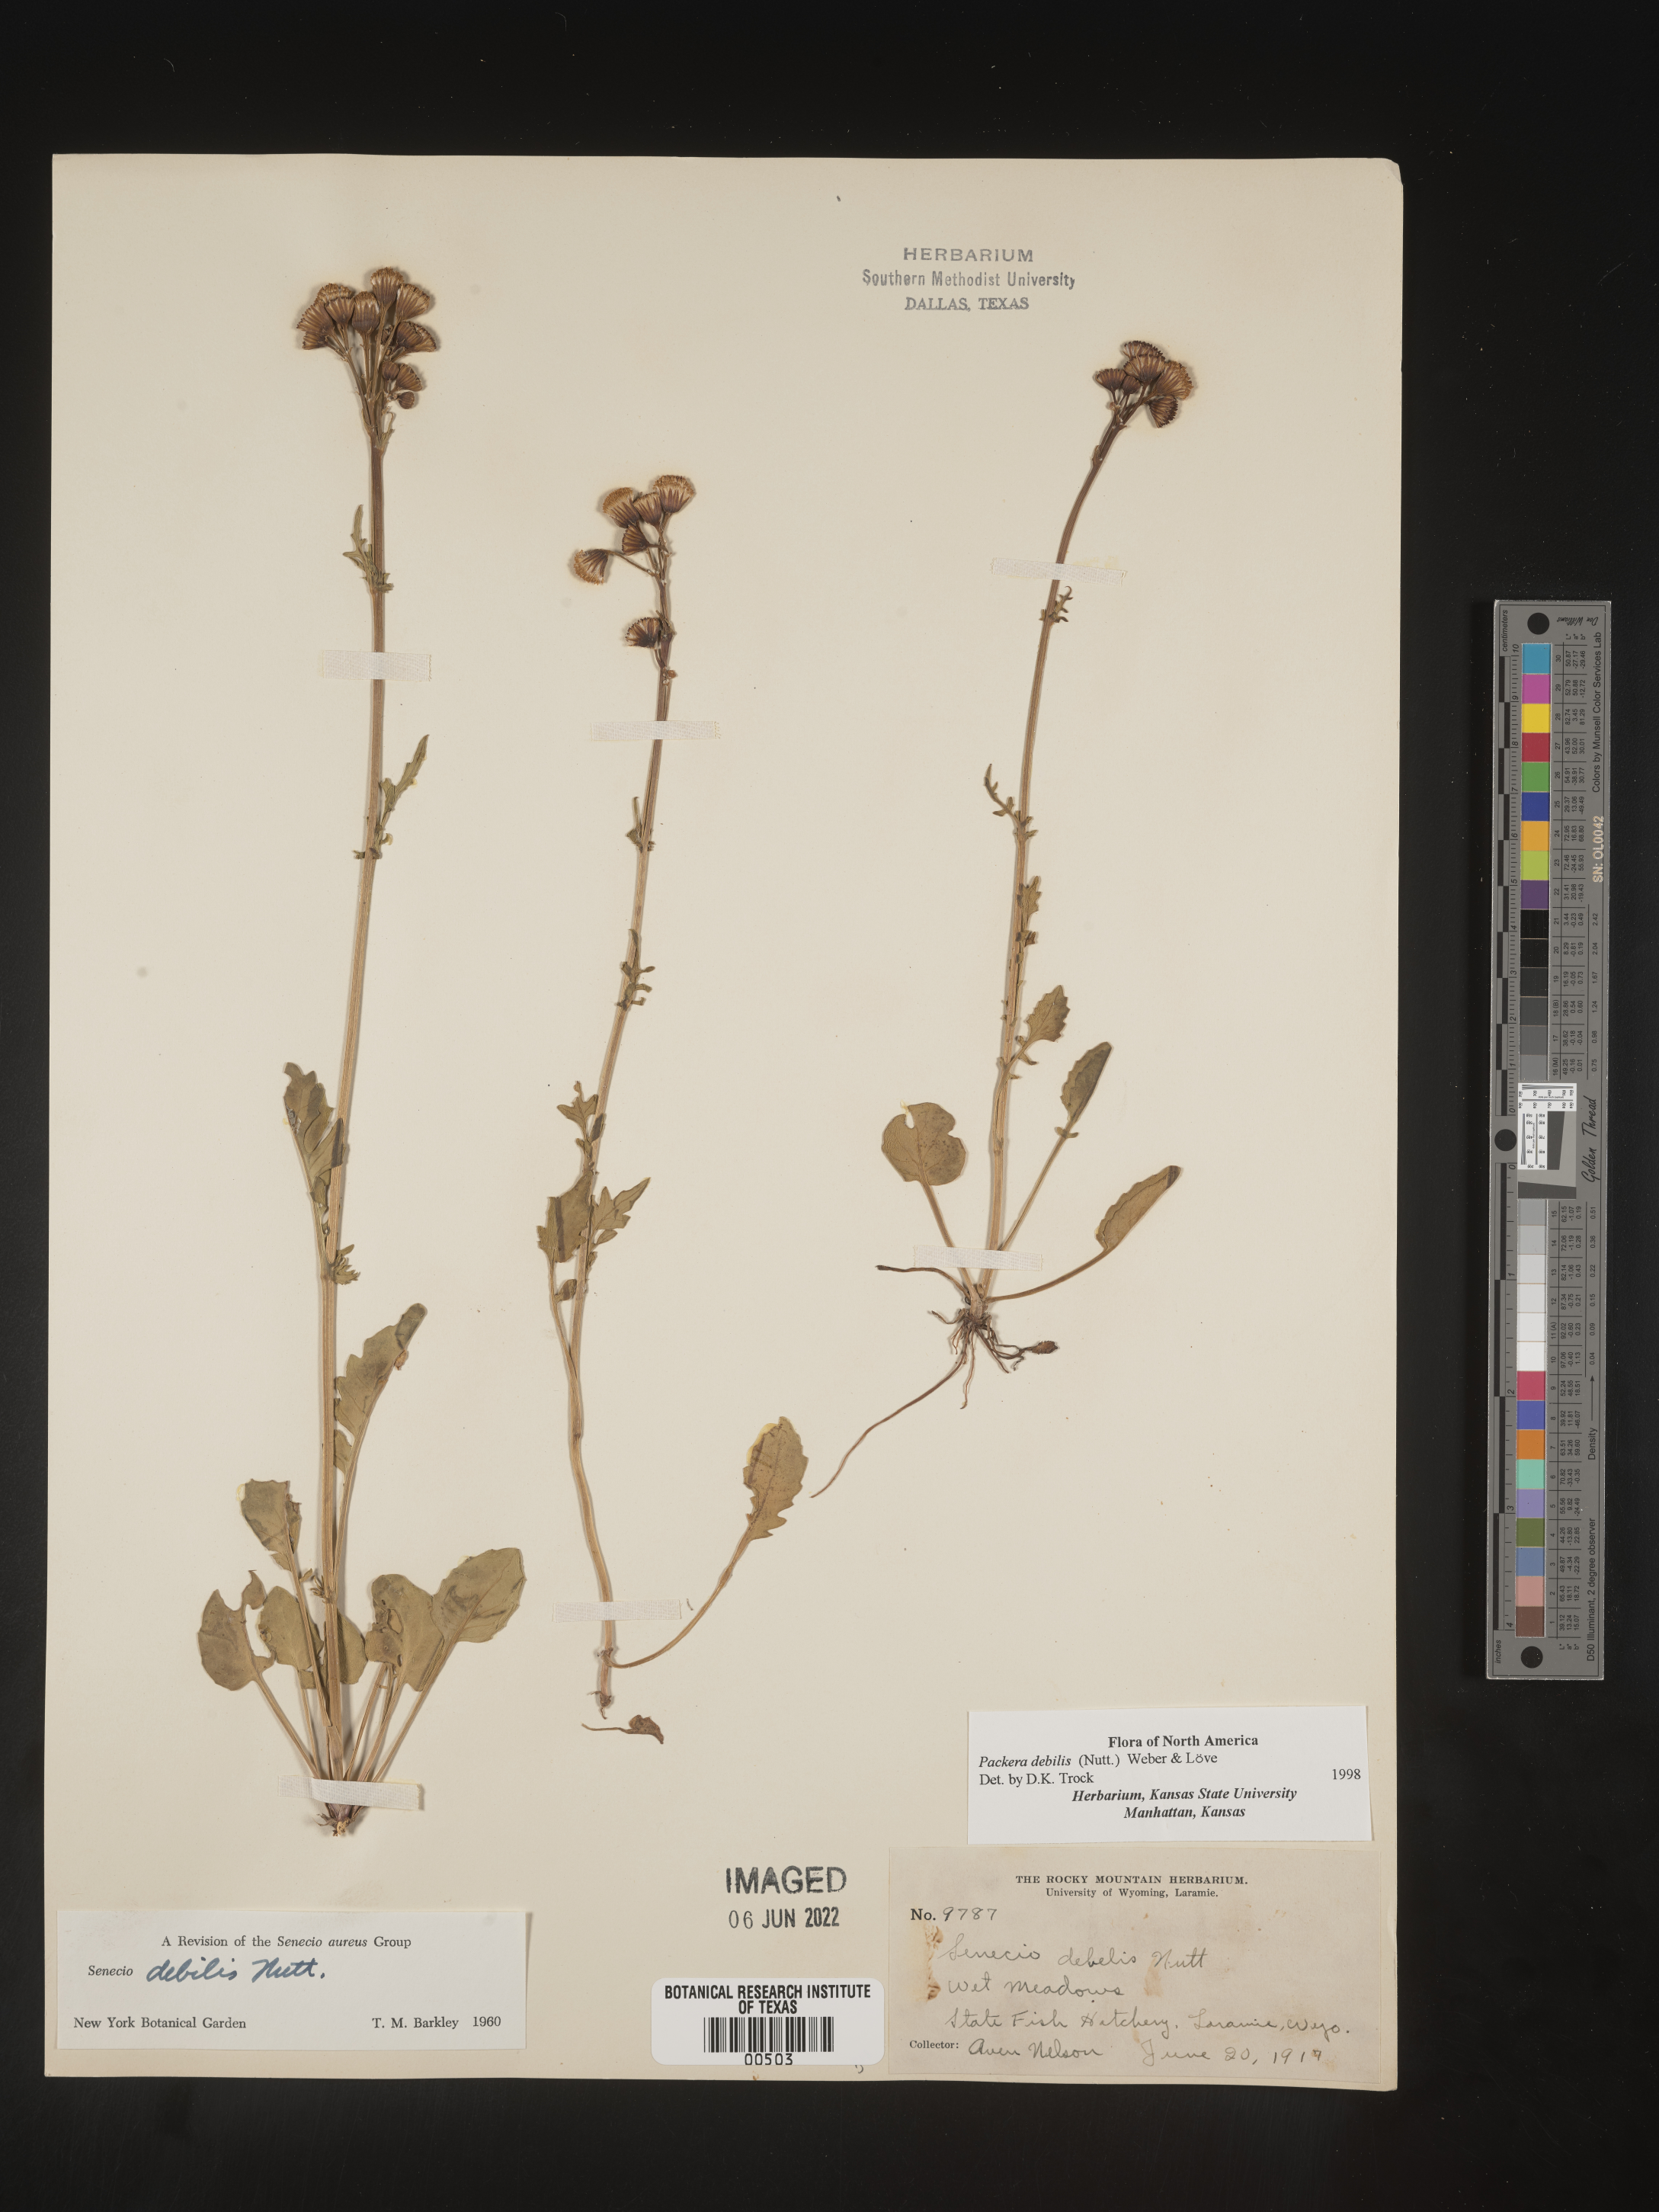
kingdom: Plantae
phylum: Tracheophyta
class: Magnoliopsida
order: Asterales
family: Asteraceae
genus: Packera
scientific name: Packera dimorphophylla
